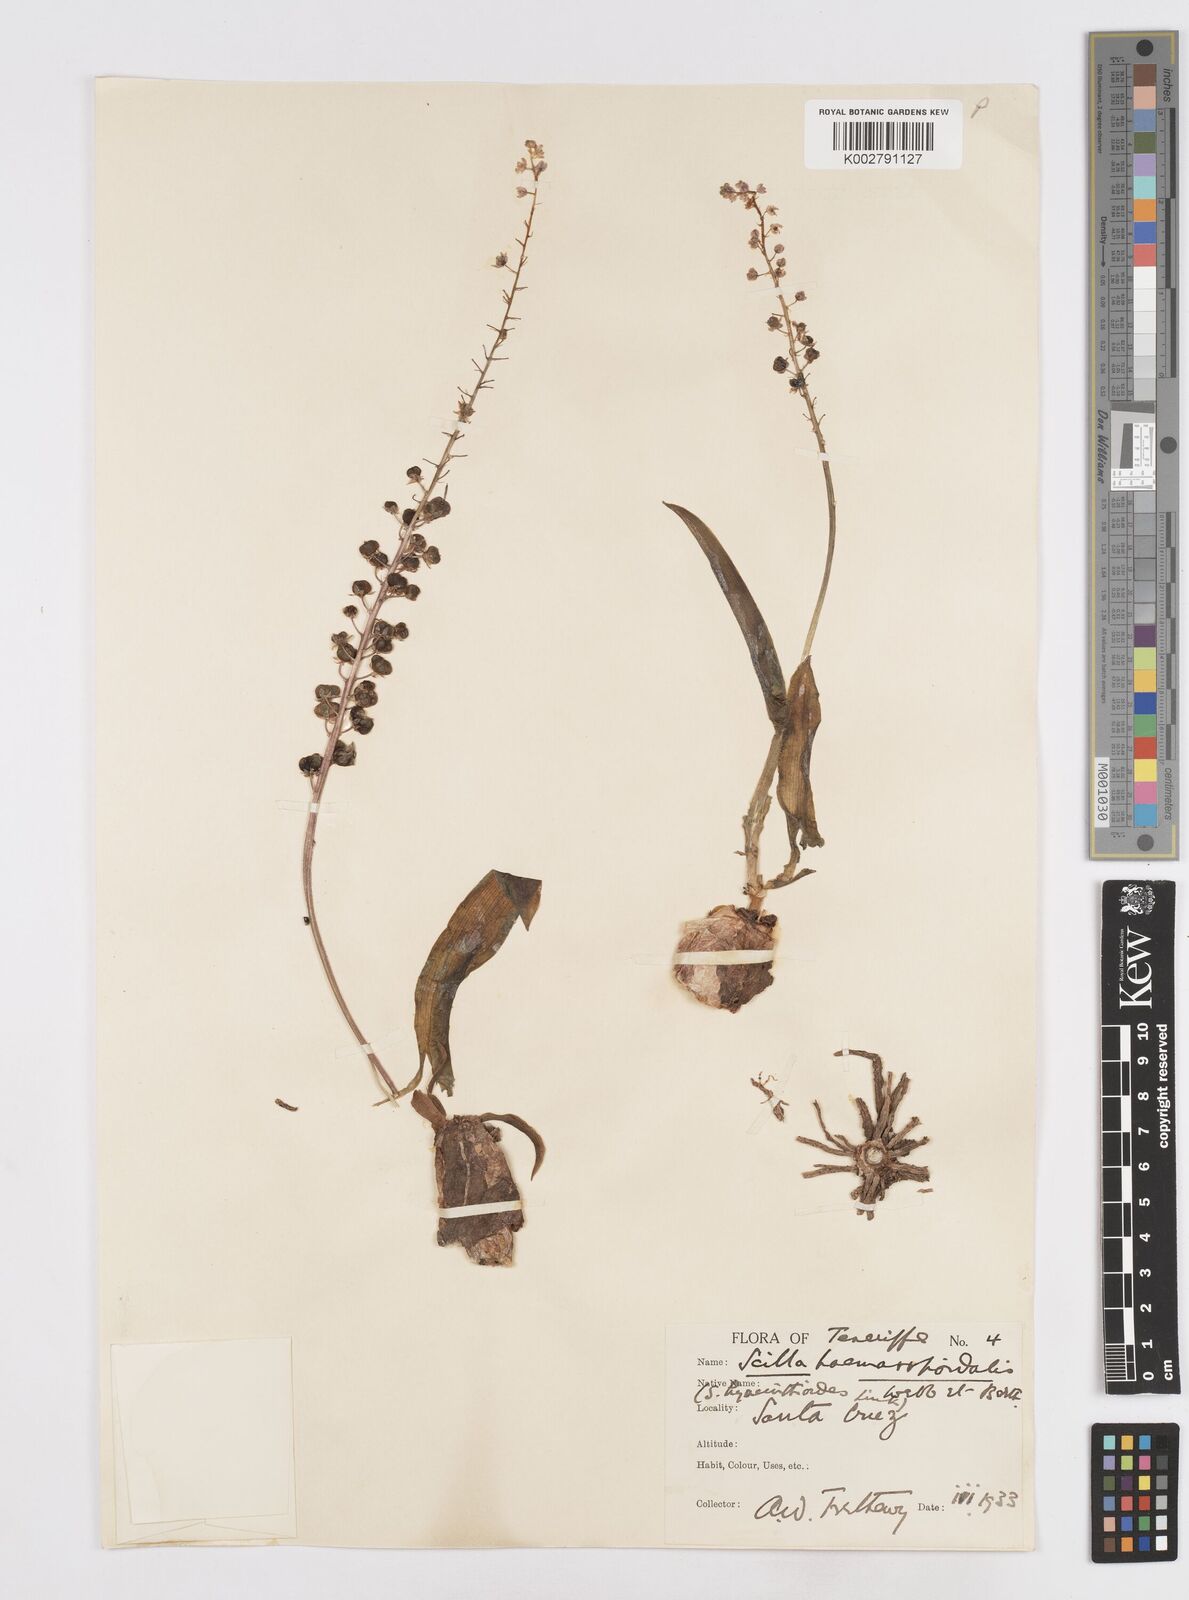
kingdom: Plantae
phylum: Tracheophyta
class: Liliopsida
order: Asparagales
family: Asparagaceae
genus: Scilla
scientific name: Scilla haemorrhoidalis
